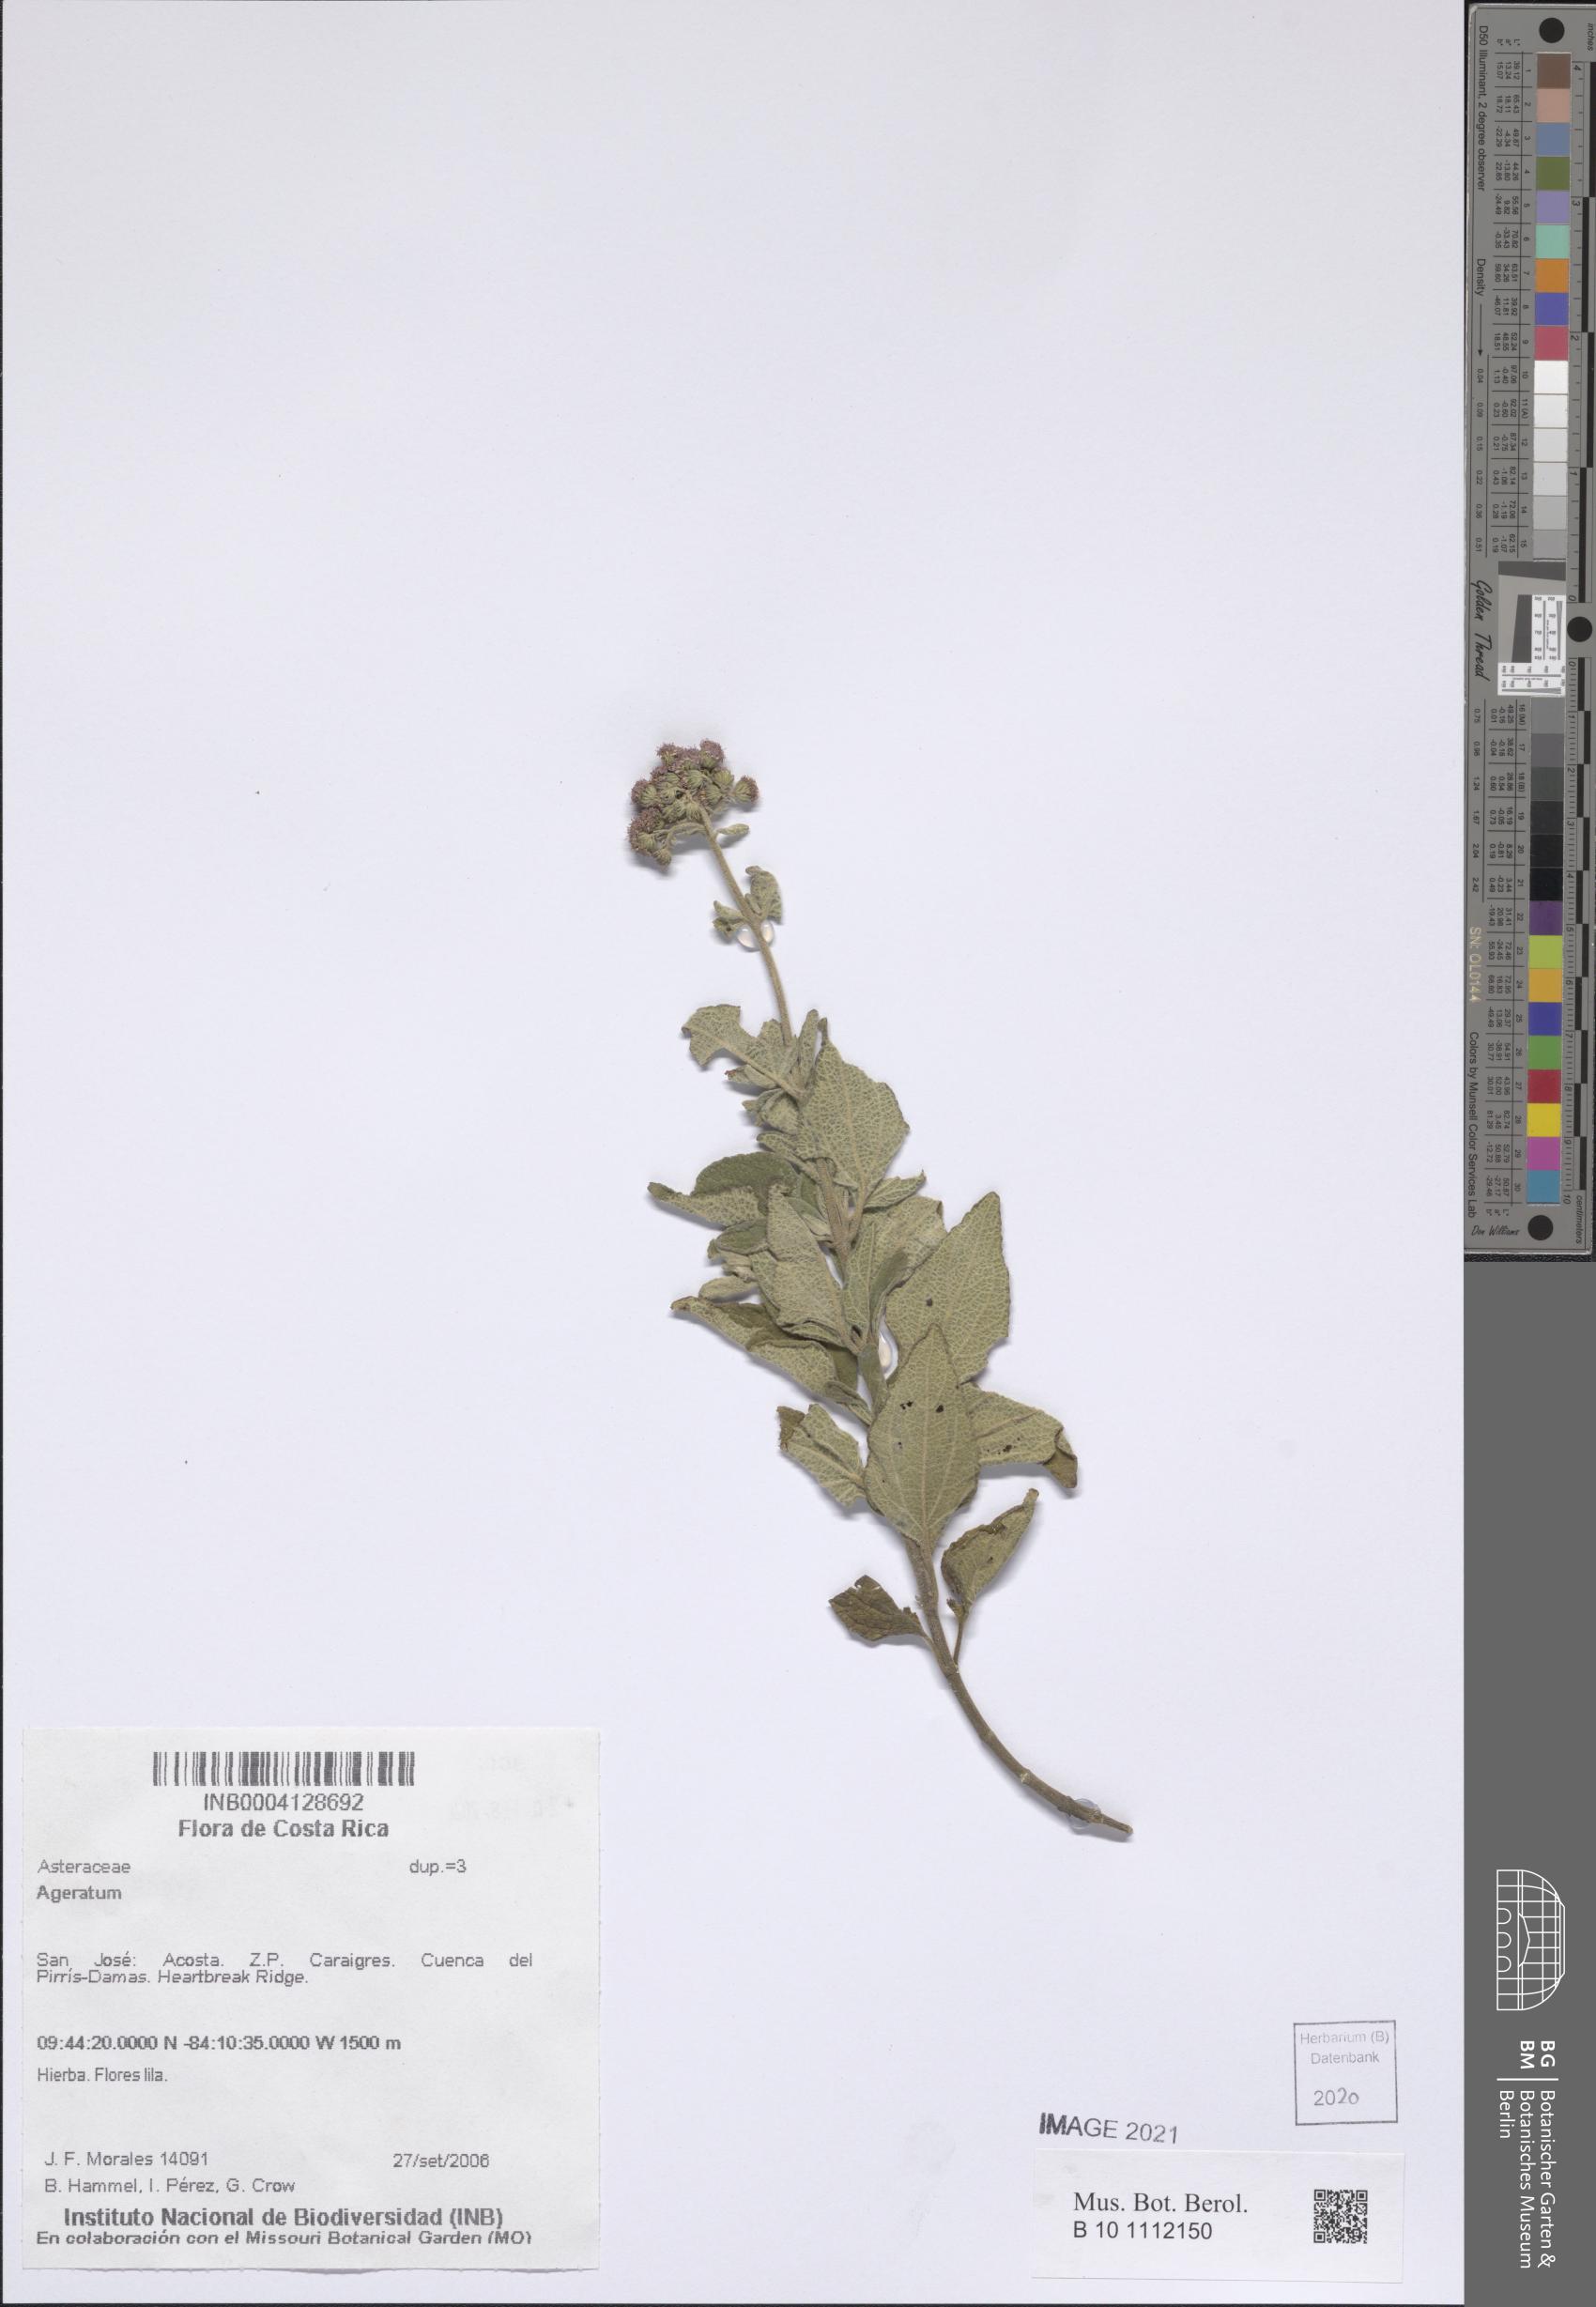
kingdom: Plantae
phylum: Tracheophyta
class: Magnoliopsida
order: Asterales
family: Asteraceae
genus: Ageratum
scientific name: Ageratum
